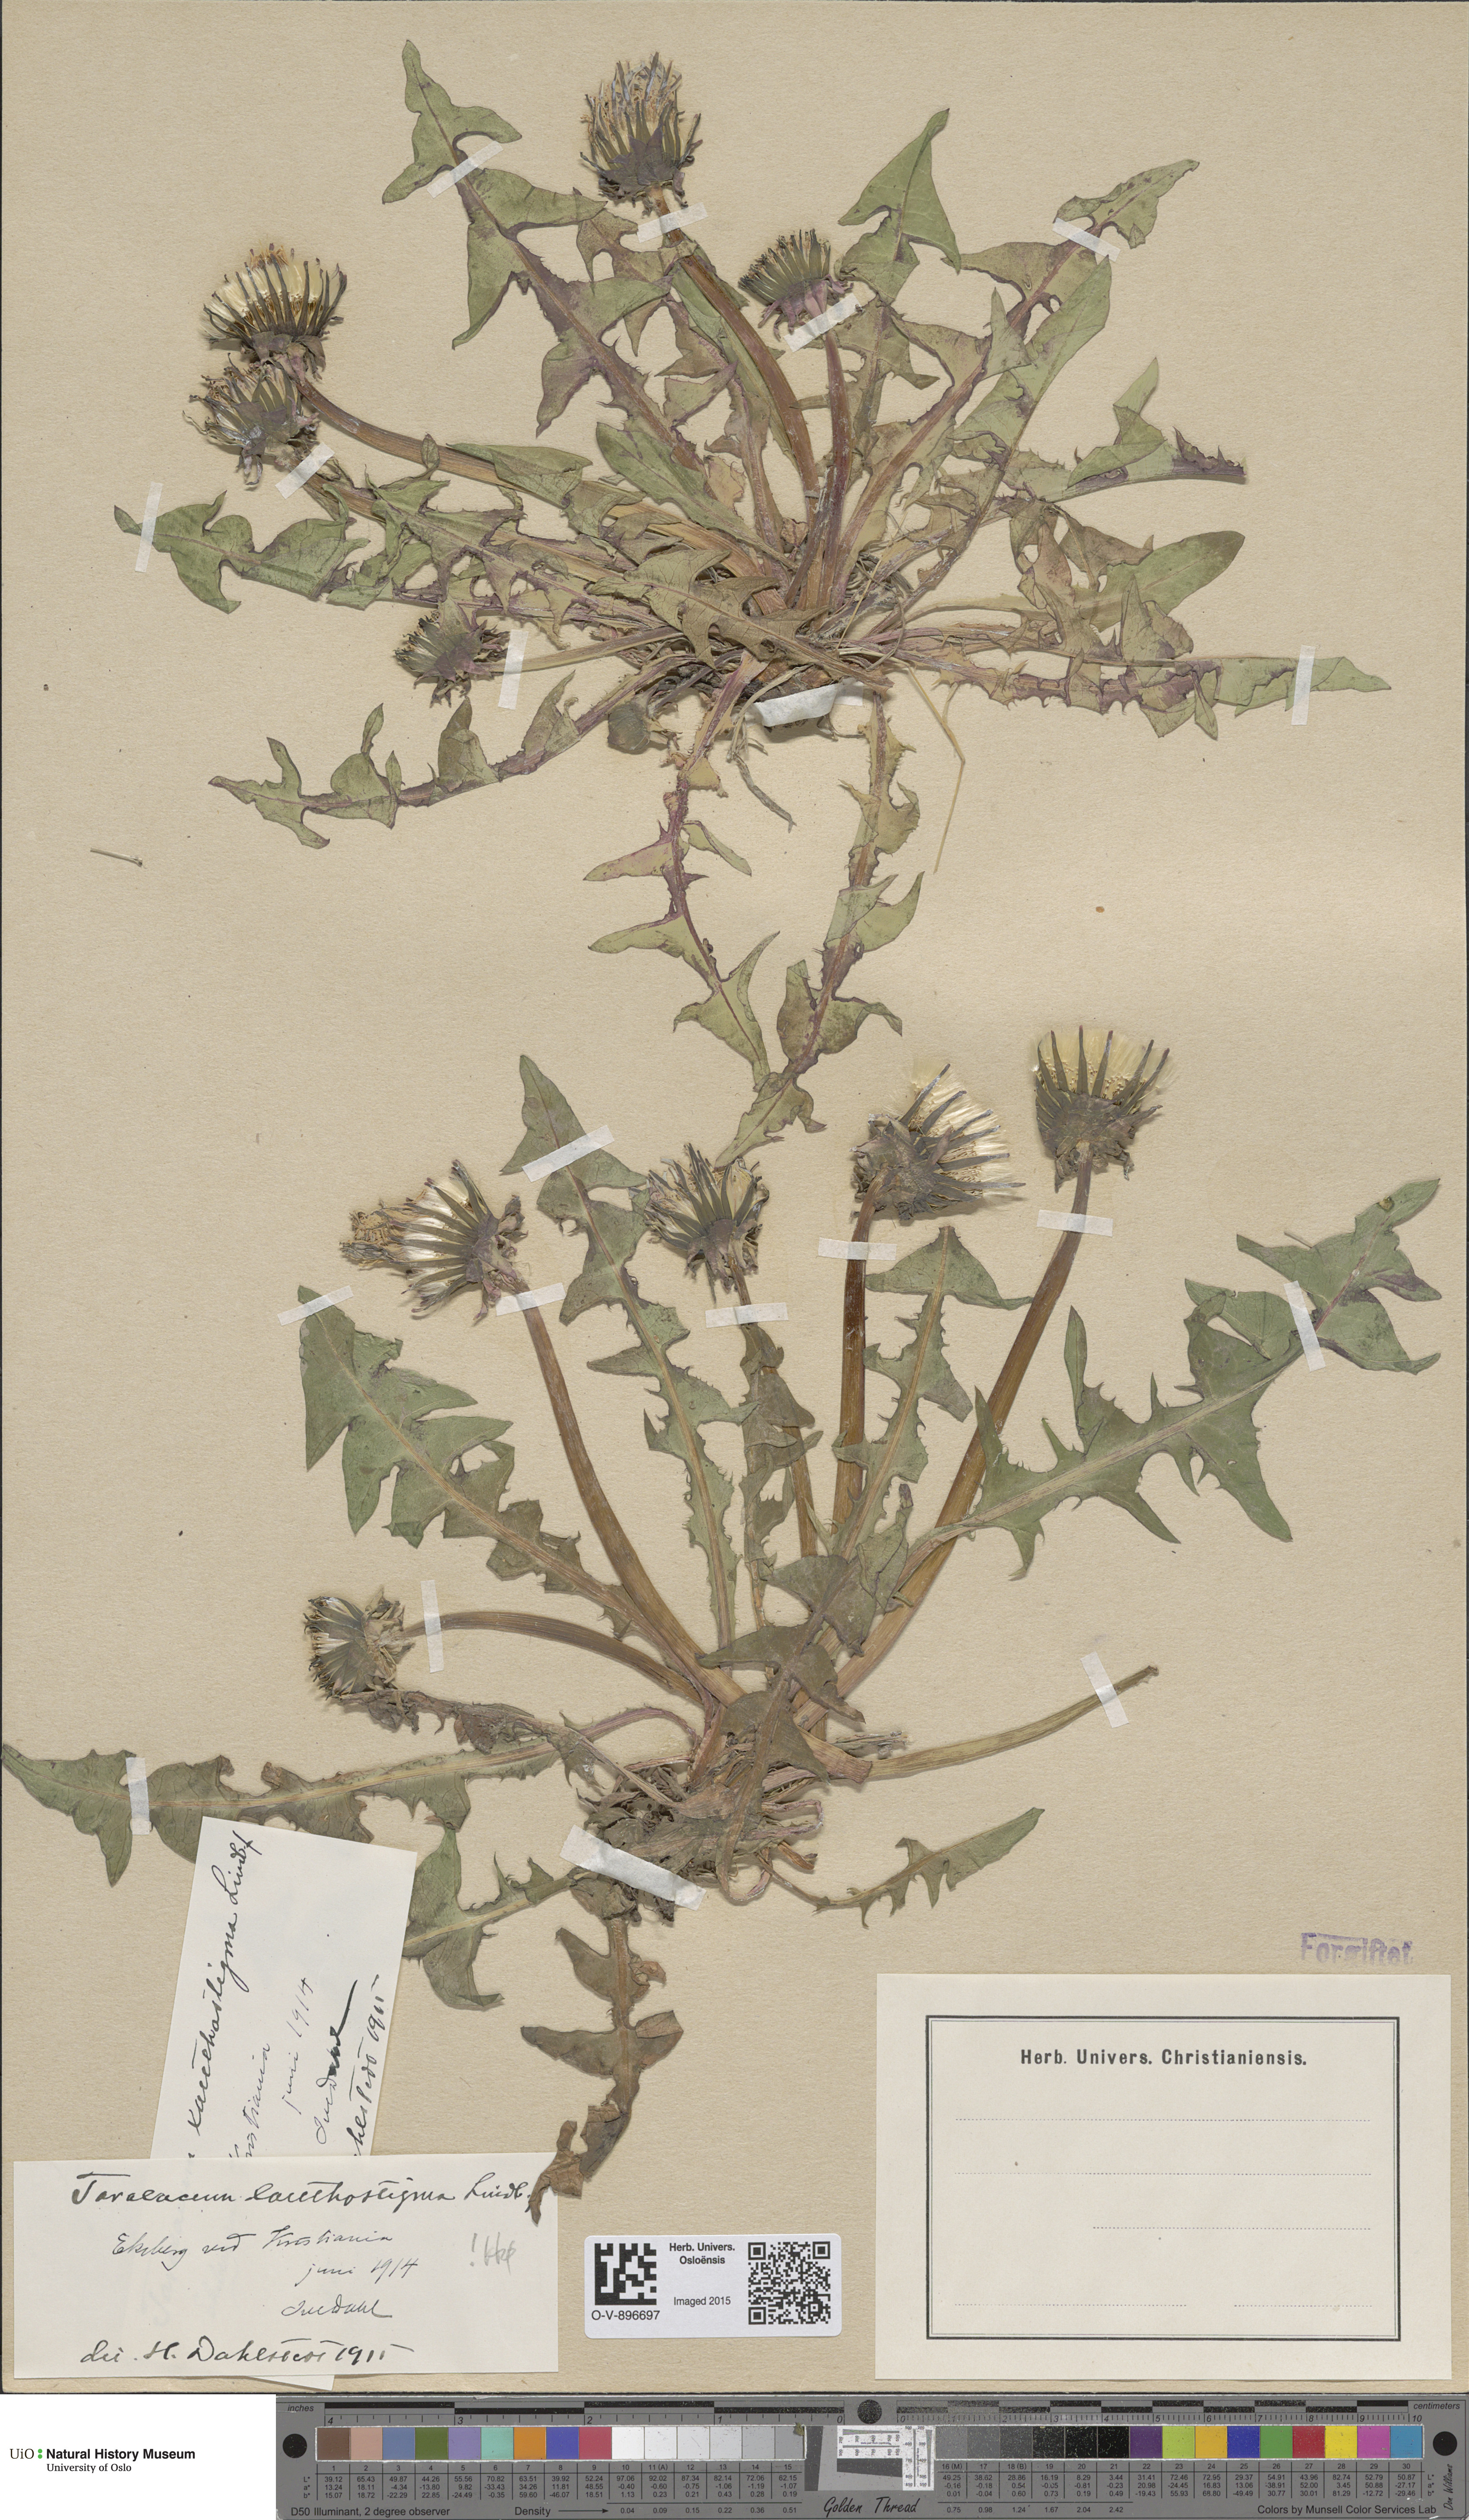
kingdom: Plantae
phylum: Tracheophyta
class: Magnoliopsida
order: Asterales
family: Asteraceae
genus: Taraxacum
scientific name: Taraxacum xanthostigma
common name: Ochre-styled dandelion
